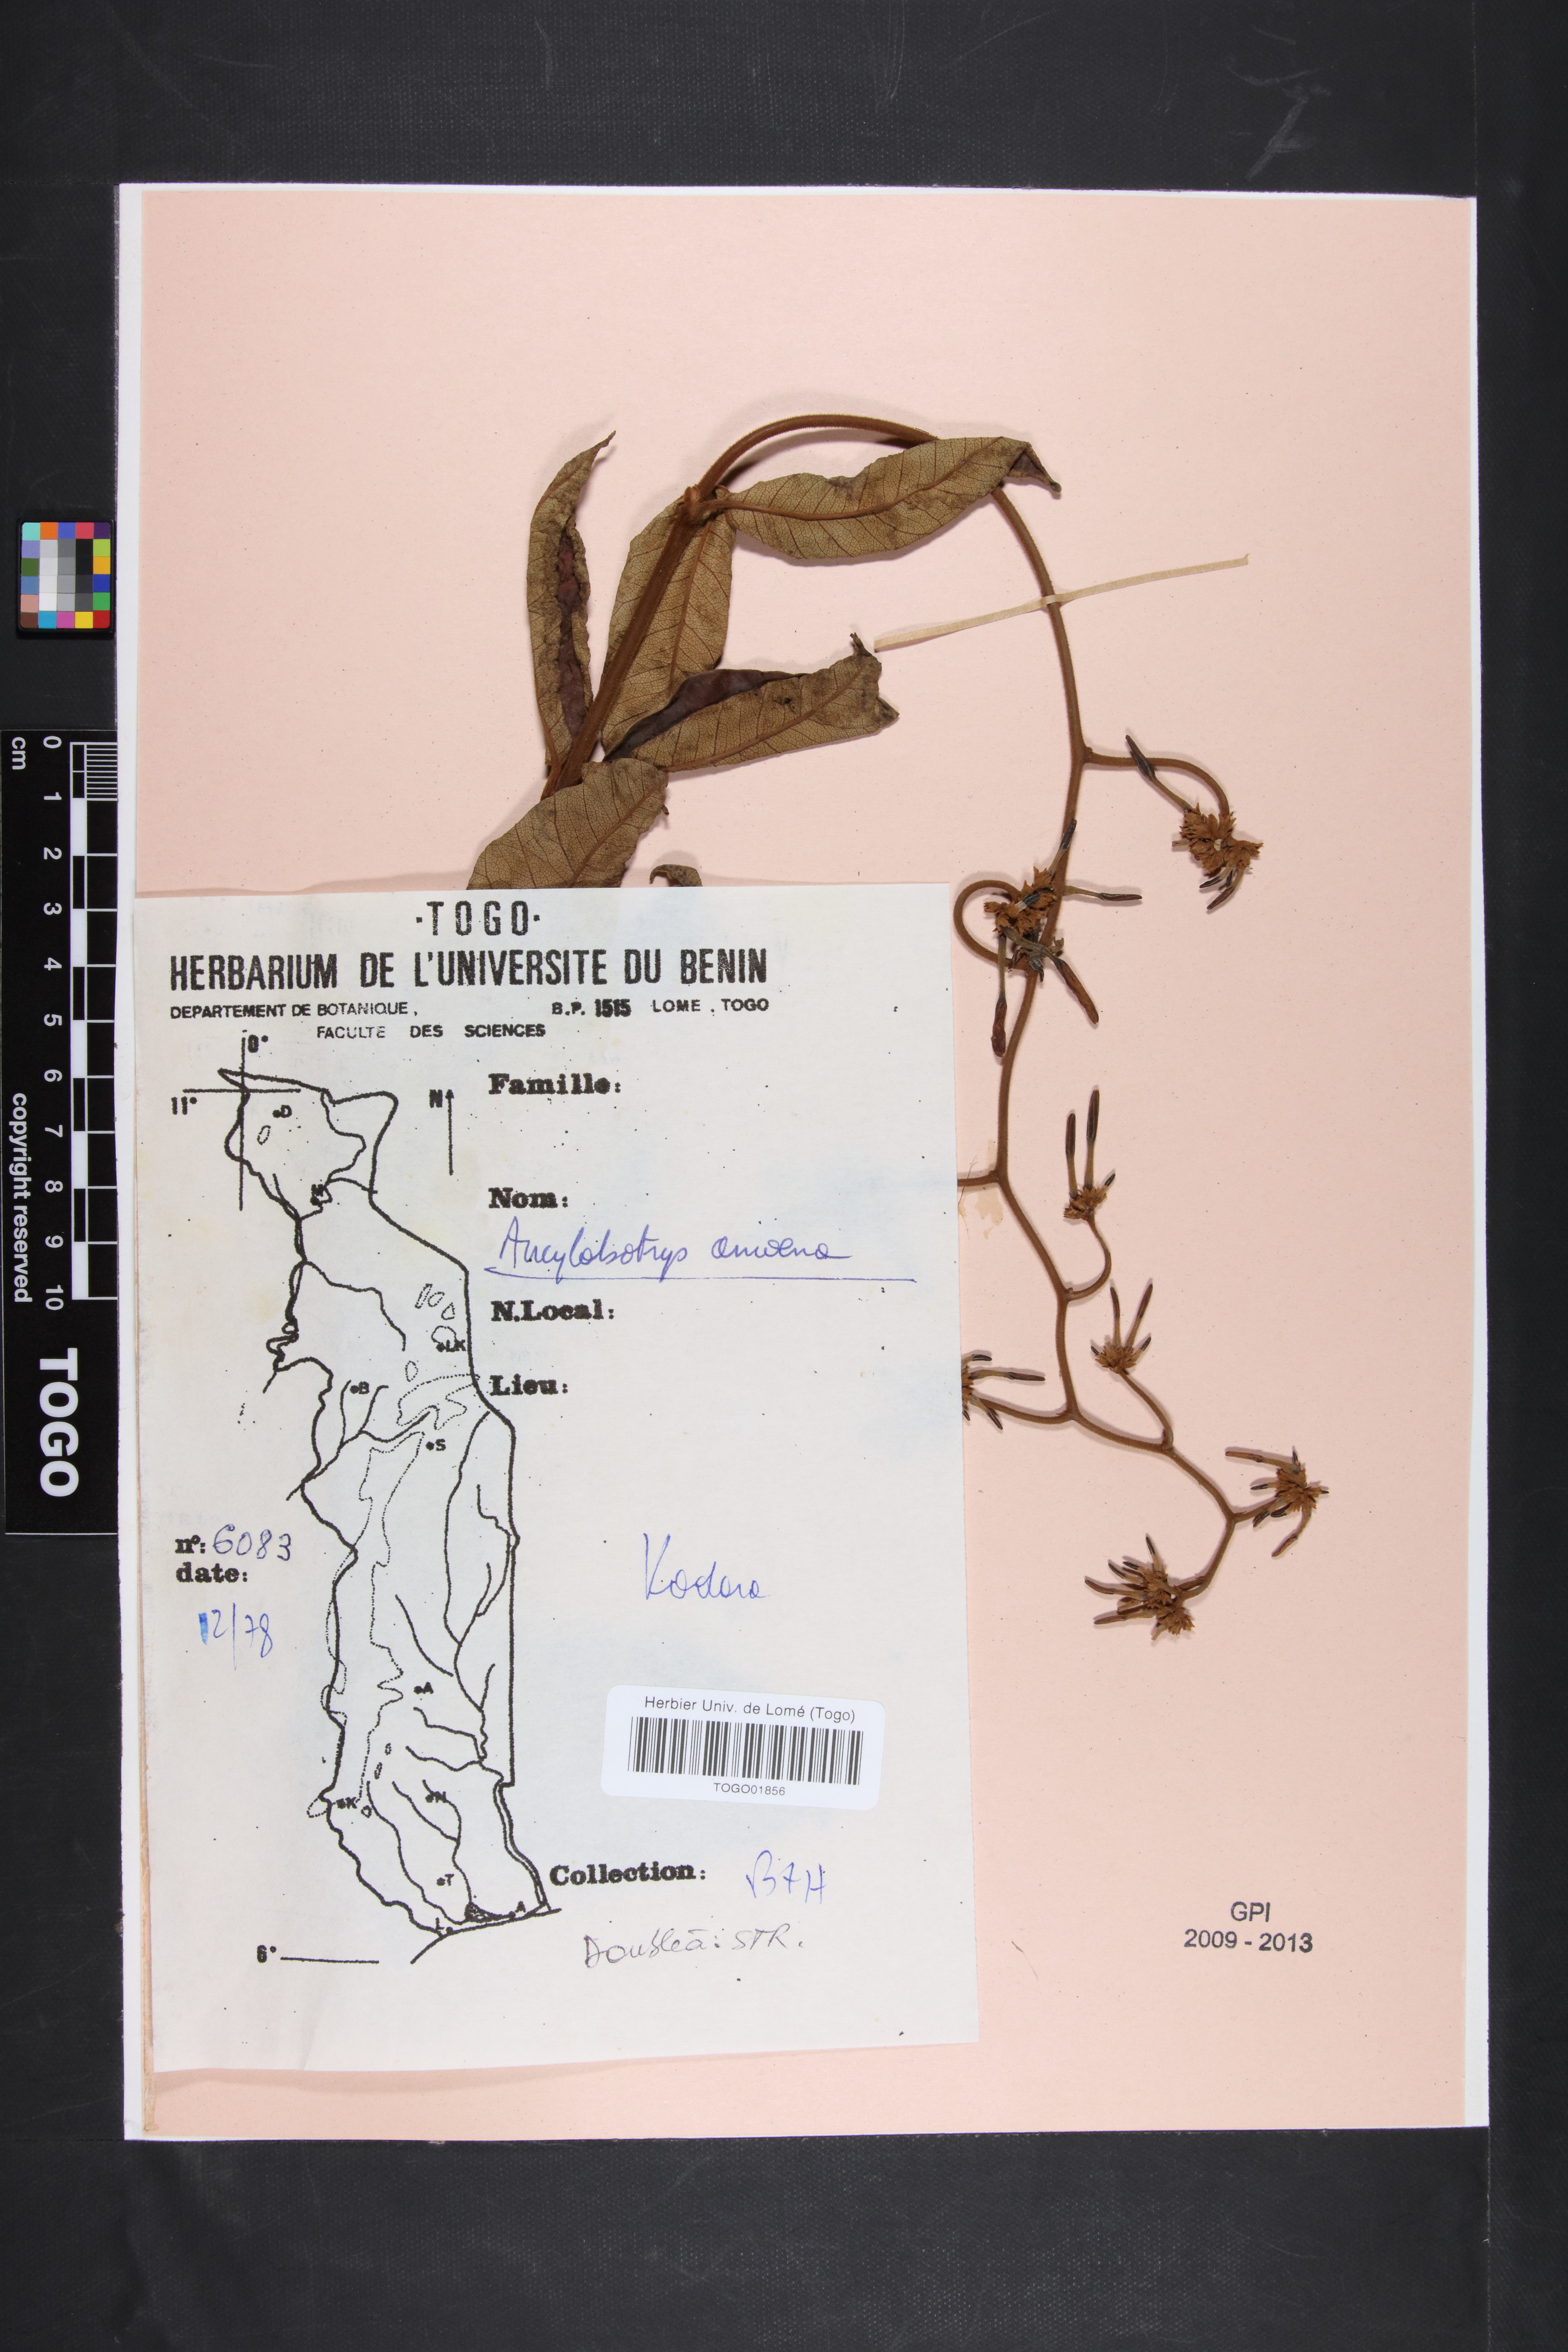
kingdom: Plantae
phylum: Tracheophyta
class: Magnoliopsida
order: Gentianales
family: Apocynaceae
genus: Ancylobothrys
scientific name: Ancylobothrys amoena
